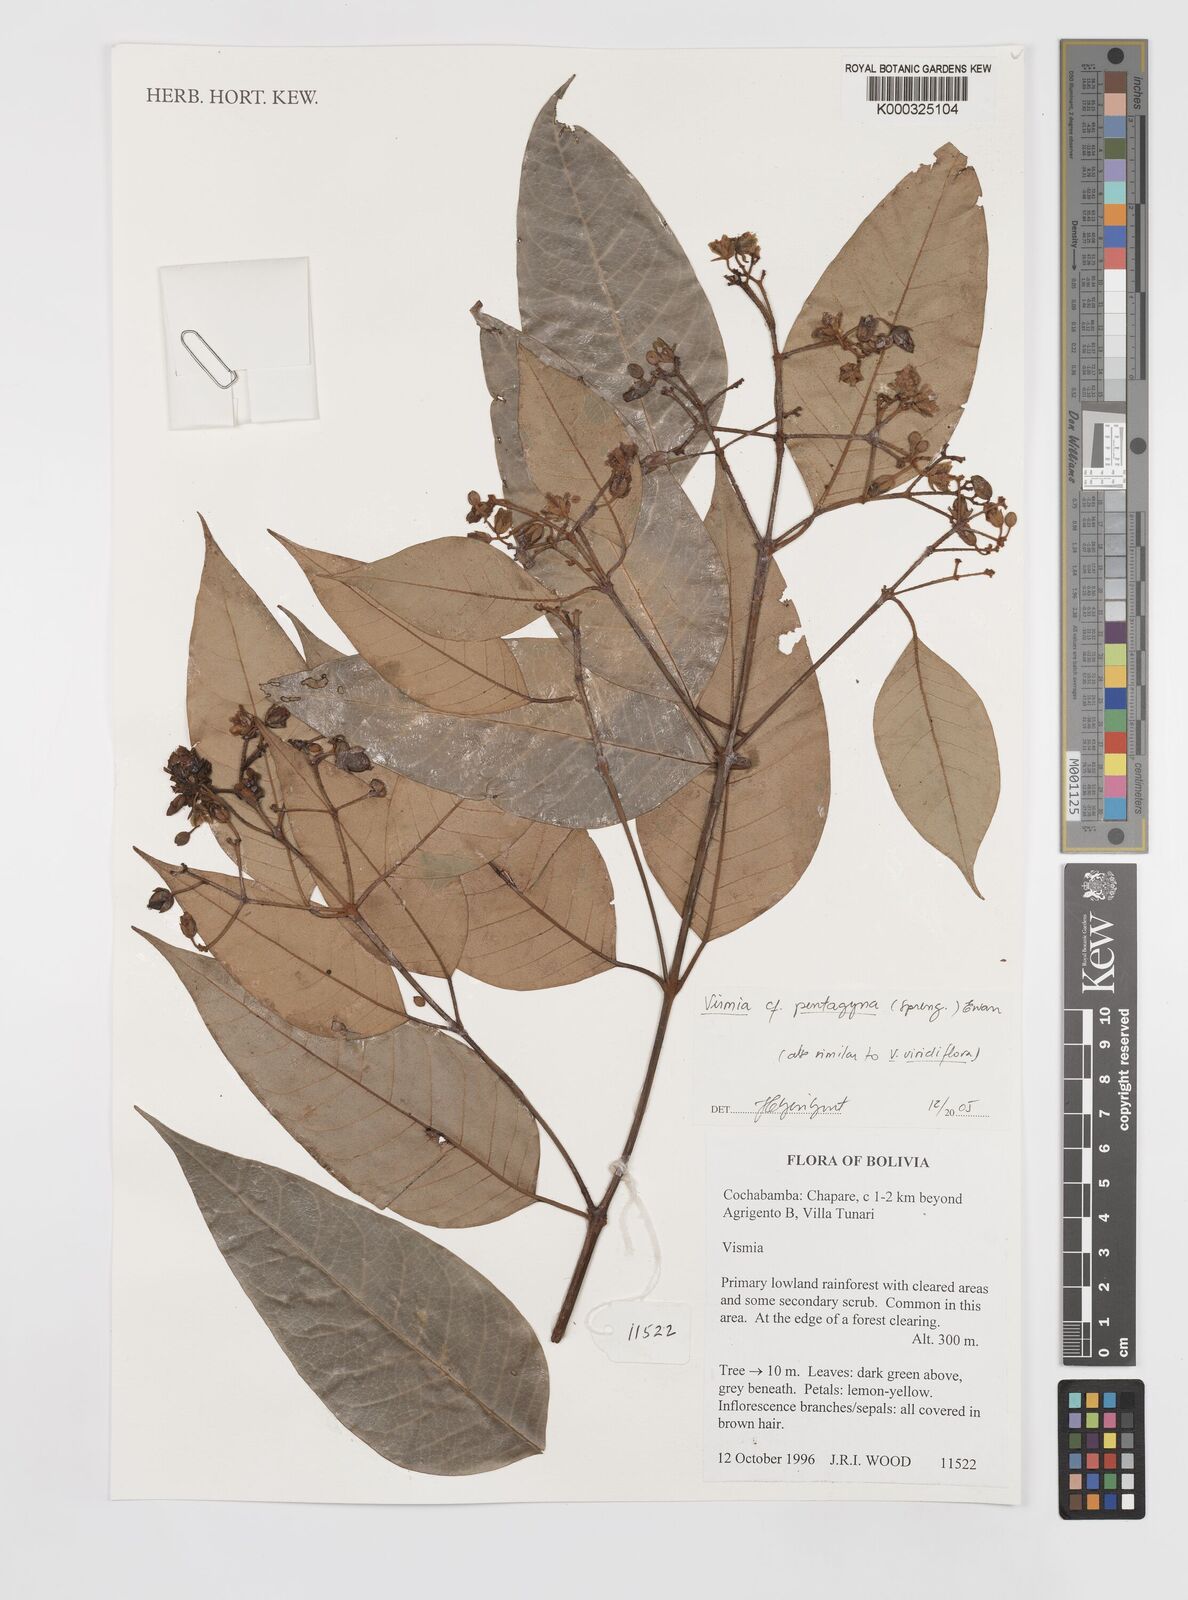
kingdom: Plantae
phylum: Tracheophyta
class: Magnoliopsida
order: Malpighiales
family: Hypericaceae
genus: Vismia
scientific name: Vismia pentagyna
